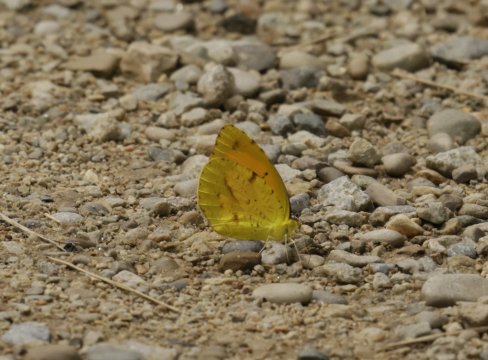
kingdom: Animalia
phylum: Arthropoda
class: Insecta
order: Lepidoptera
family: Pieridae
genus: Abaeis
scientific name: Abaeis nicippe
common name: Sleepy Orange
